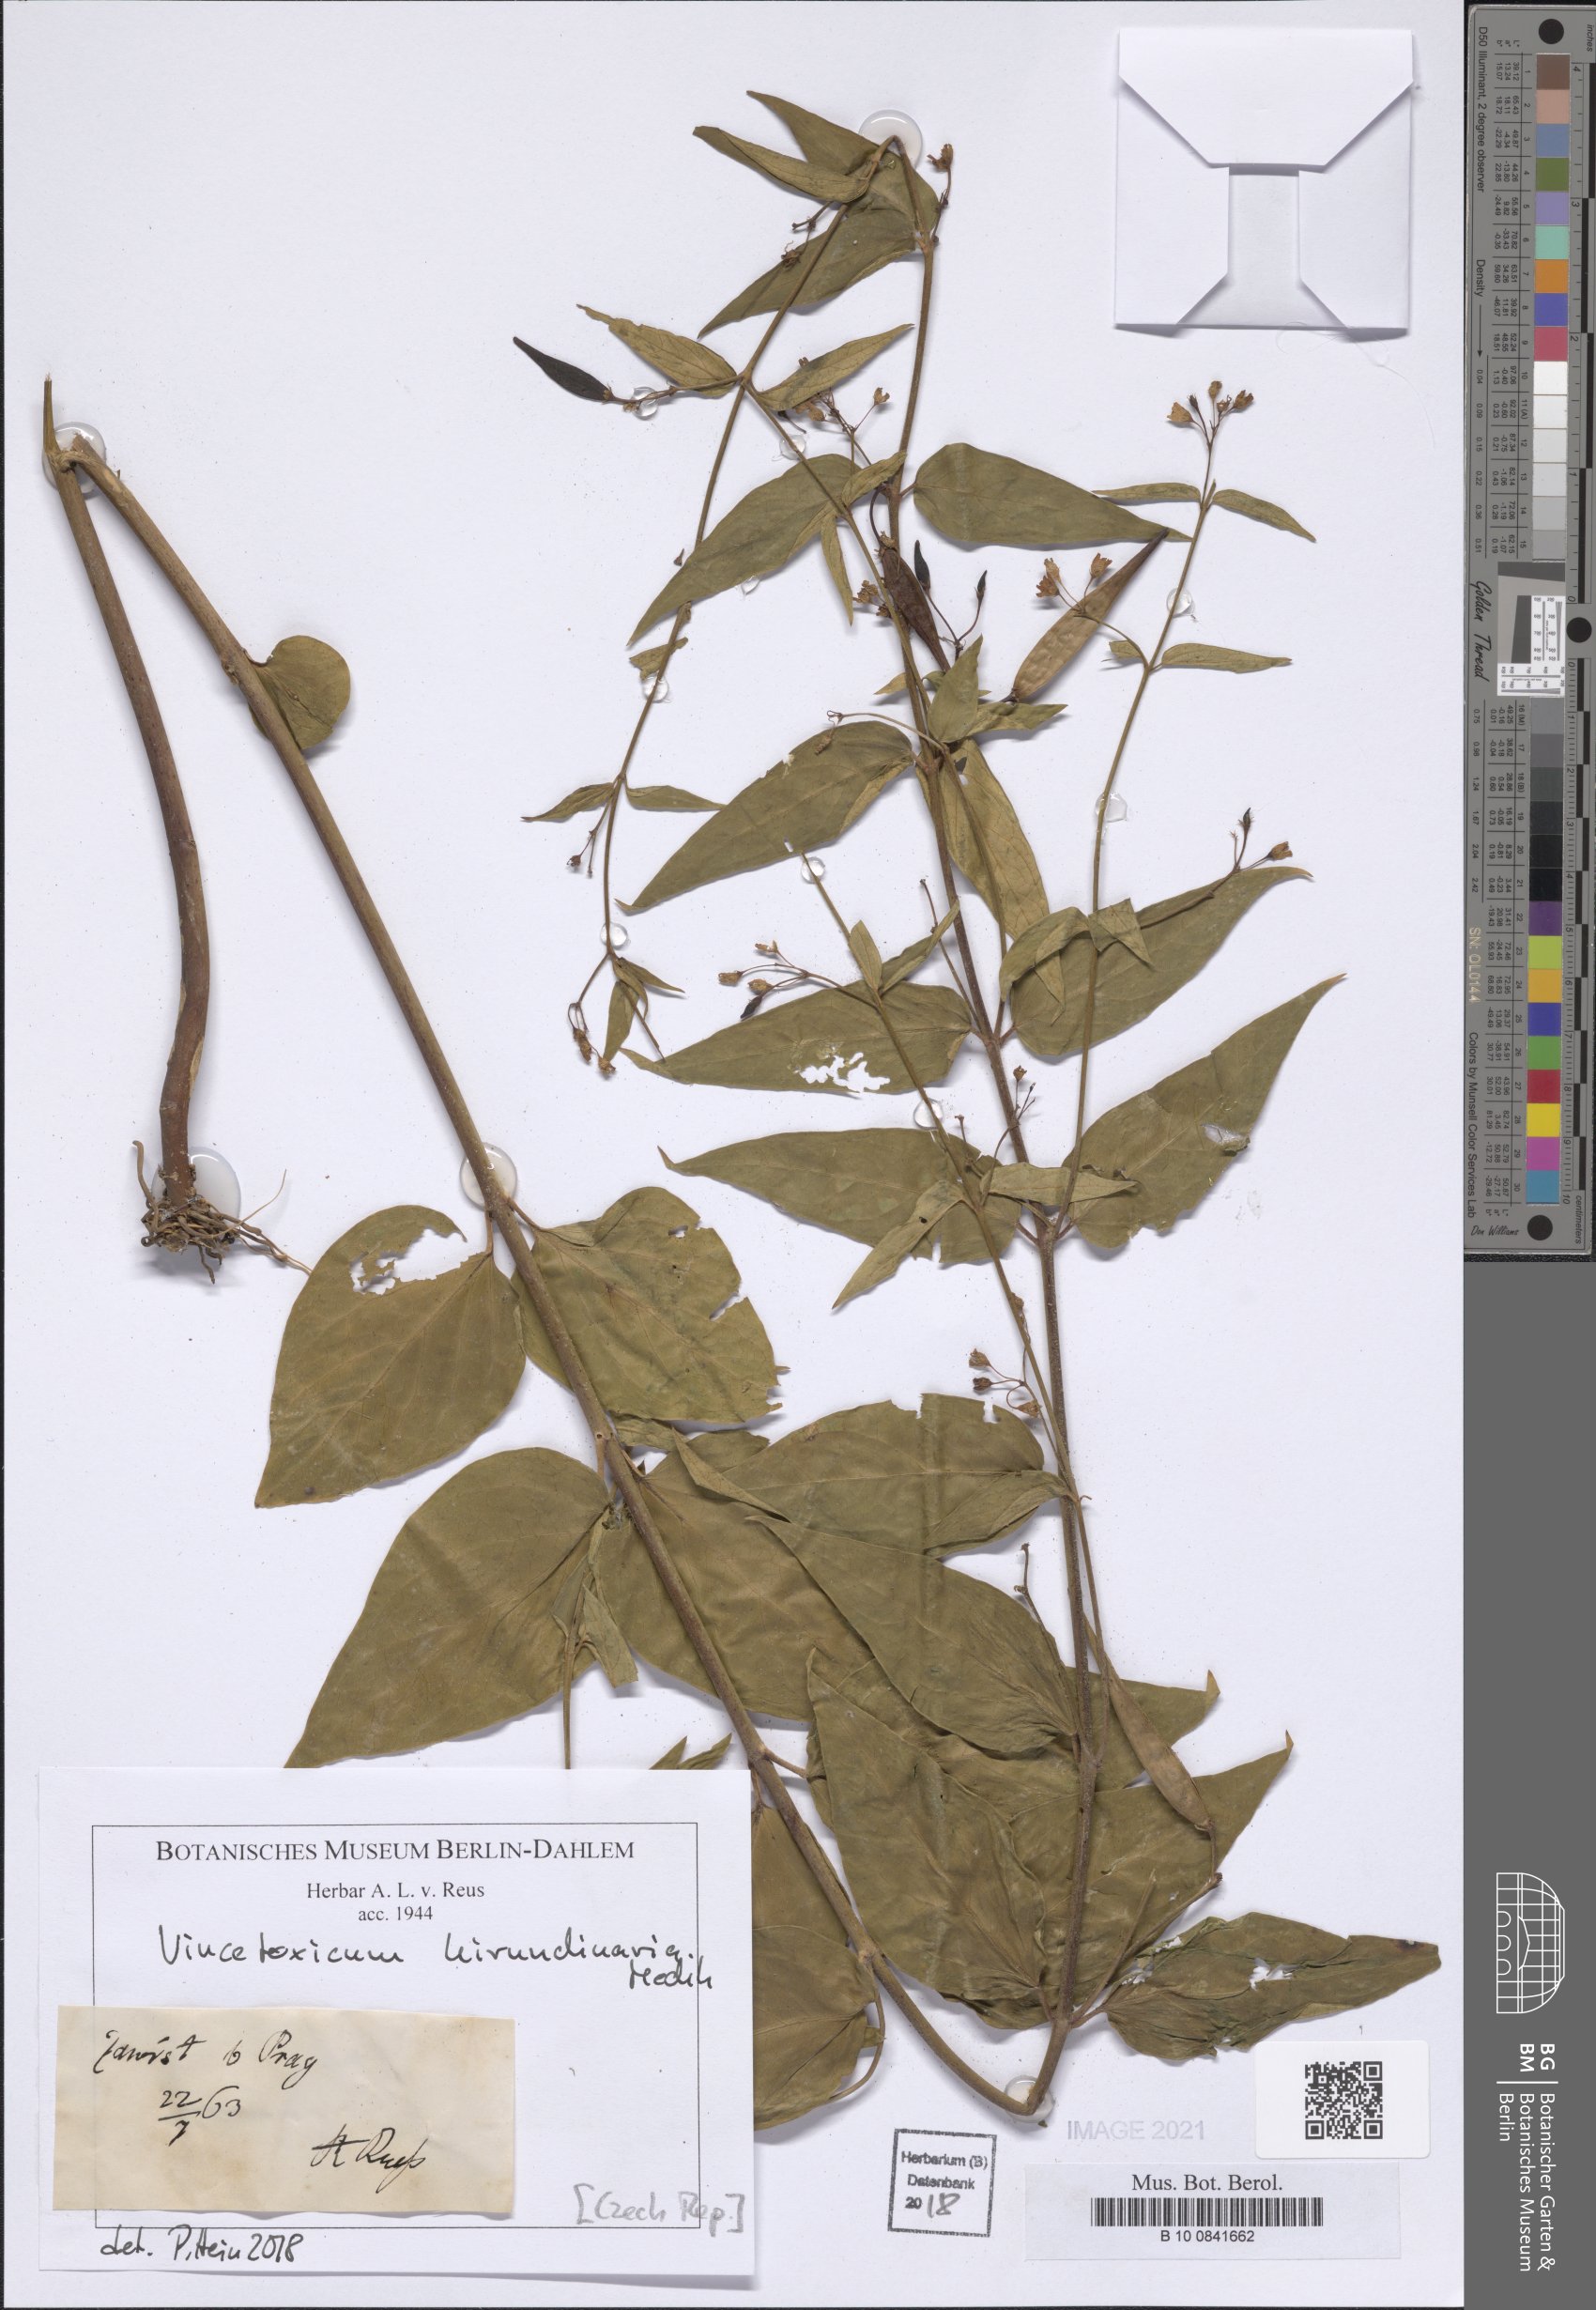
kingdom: Plantae
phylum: Tracheophyta
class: Magnoliopsida
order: Gentianales
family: Apocynaceae
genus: Vincetoxicum
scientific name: Vincetoxicum hirundinaria
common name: White swallowwort
